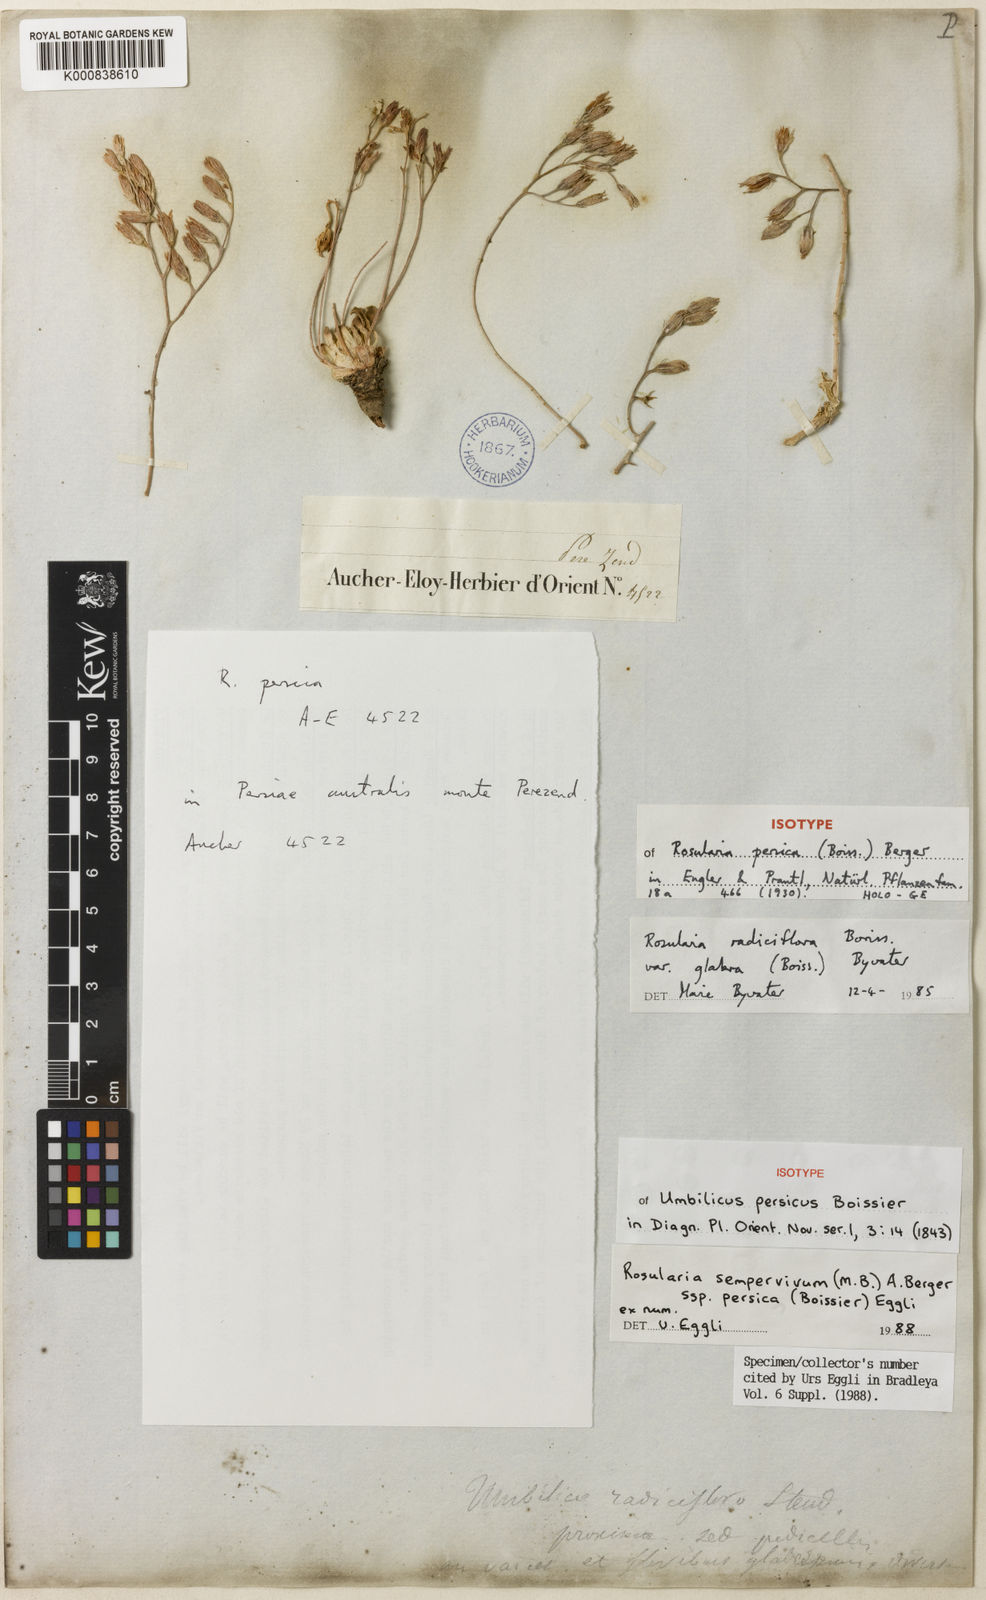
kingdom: Plantae
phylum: Tracheophyta
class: Magnoliopsida
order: Saxifragales
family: Crassulaceae
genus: Rosularia
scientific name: Rosularia sempervivum
